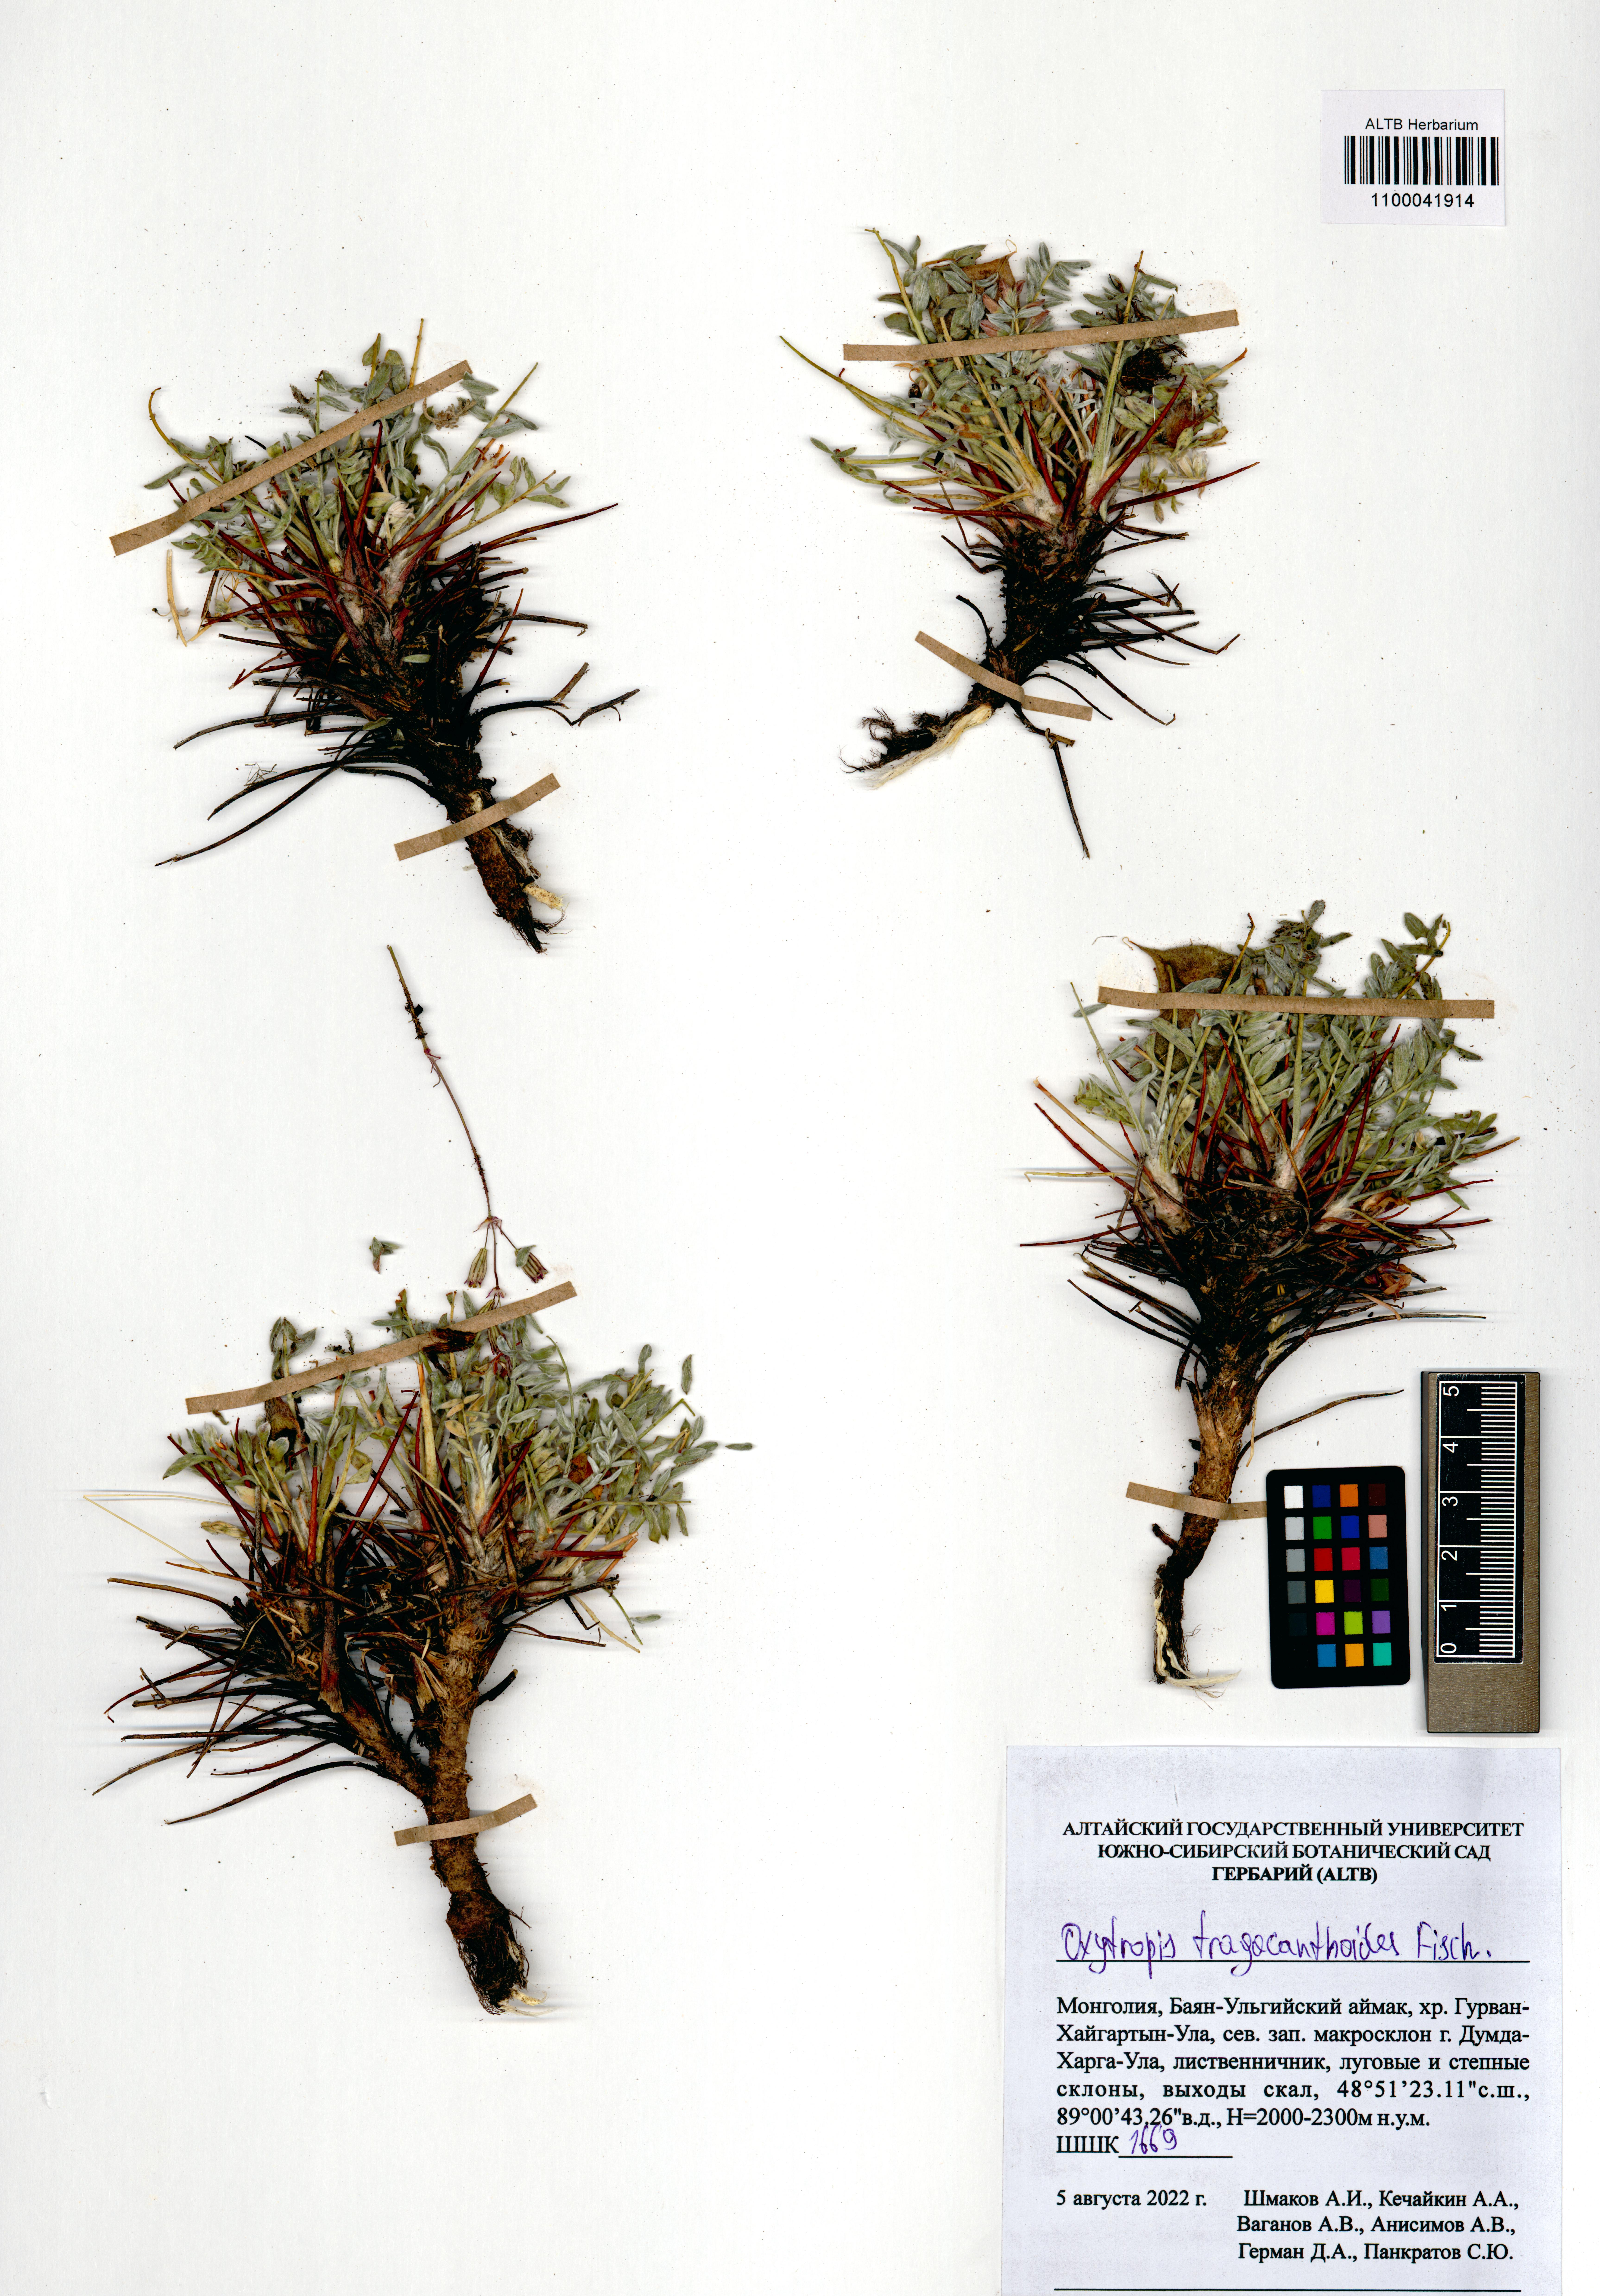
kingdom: Plantae
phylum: Tracheophyta
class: Magnoliopsida
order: Fabales
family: Fabaceae
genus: Oxytropis
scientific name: Oxytropis tragacanthoides
